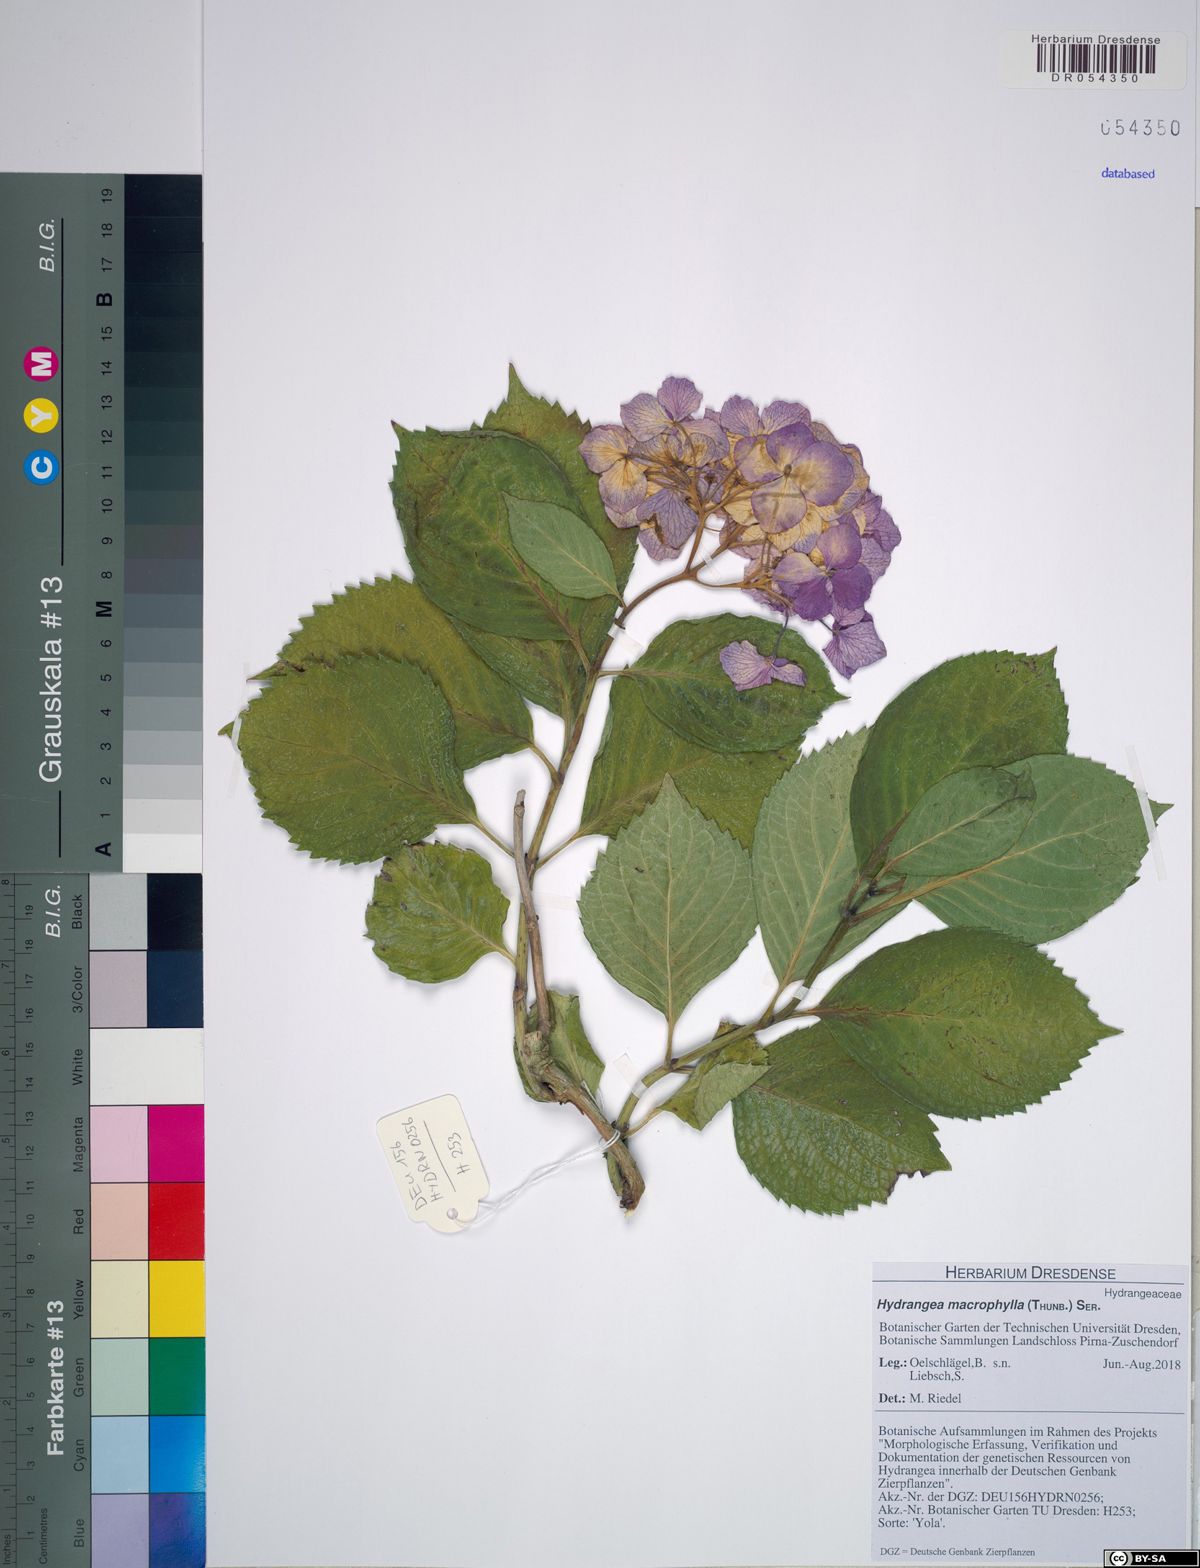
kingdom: Plantae
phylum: Tracheophyta
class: Magnoliopsida
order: Cornales
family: Hydrangeaceae
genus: Hydrangea
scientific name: Hydrangea macrophylla
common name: Hydrangea
